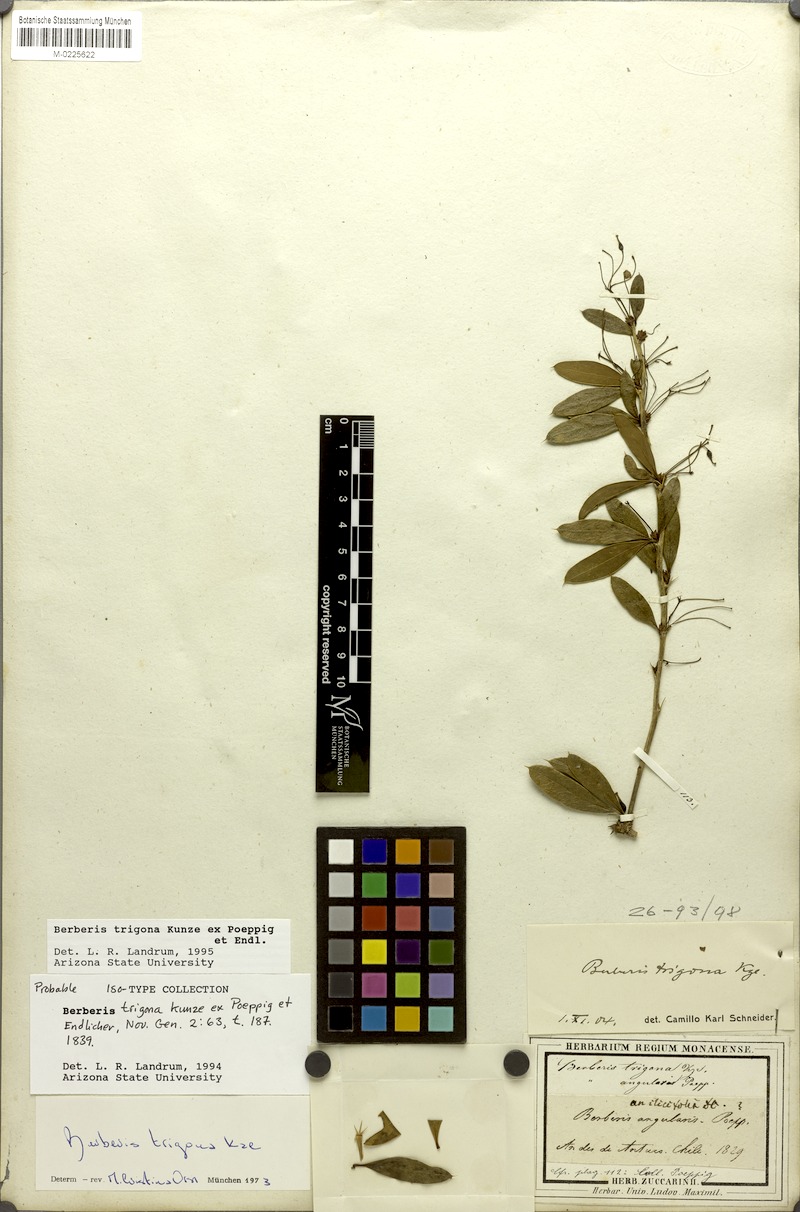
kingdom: Plantae
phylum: Tracheophyta
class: Magnoliopsida
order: Ranunculales
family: Berberidaceae
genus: Berberis
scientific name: Berberis trigona
